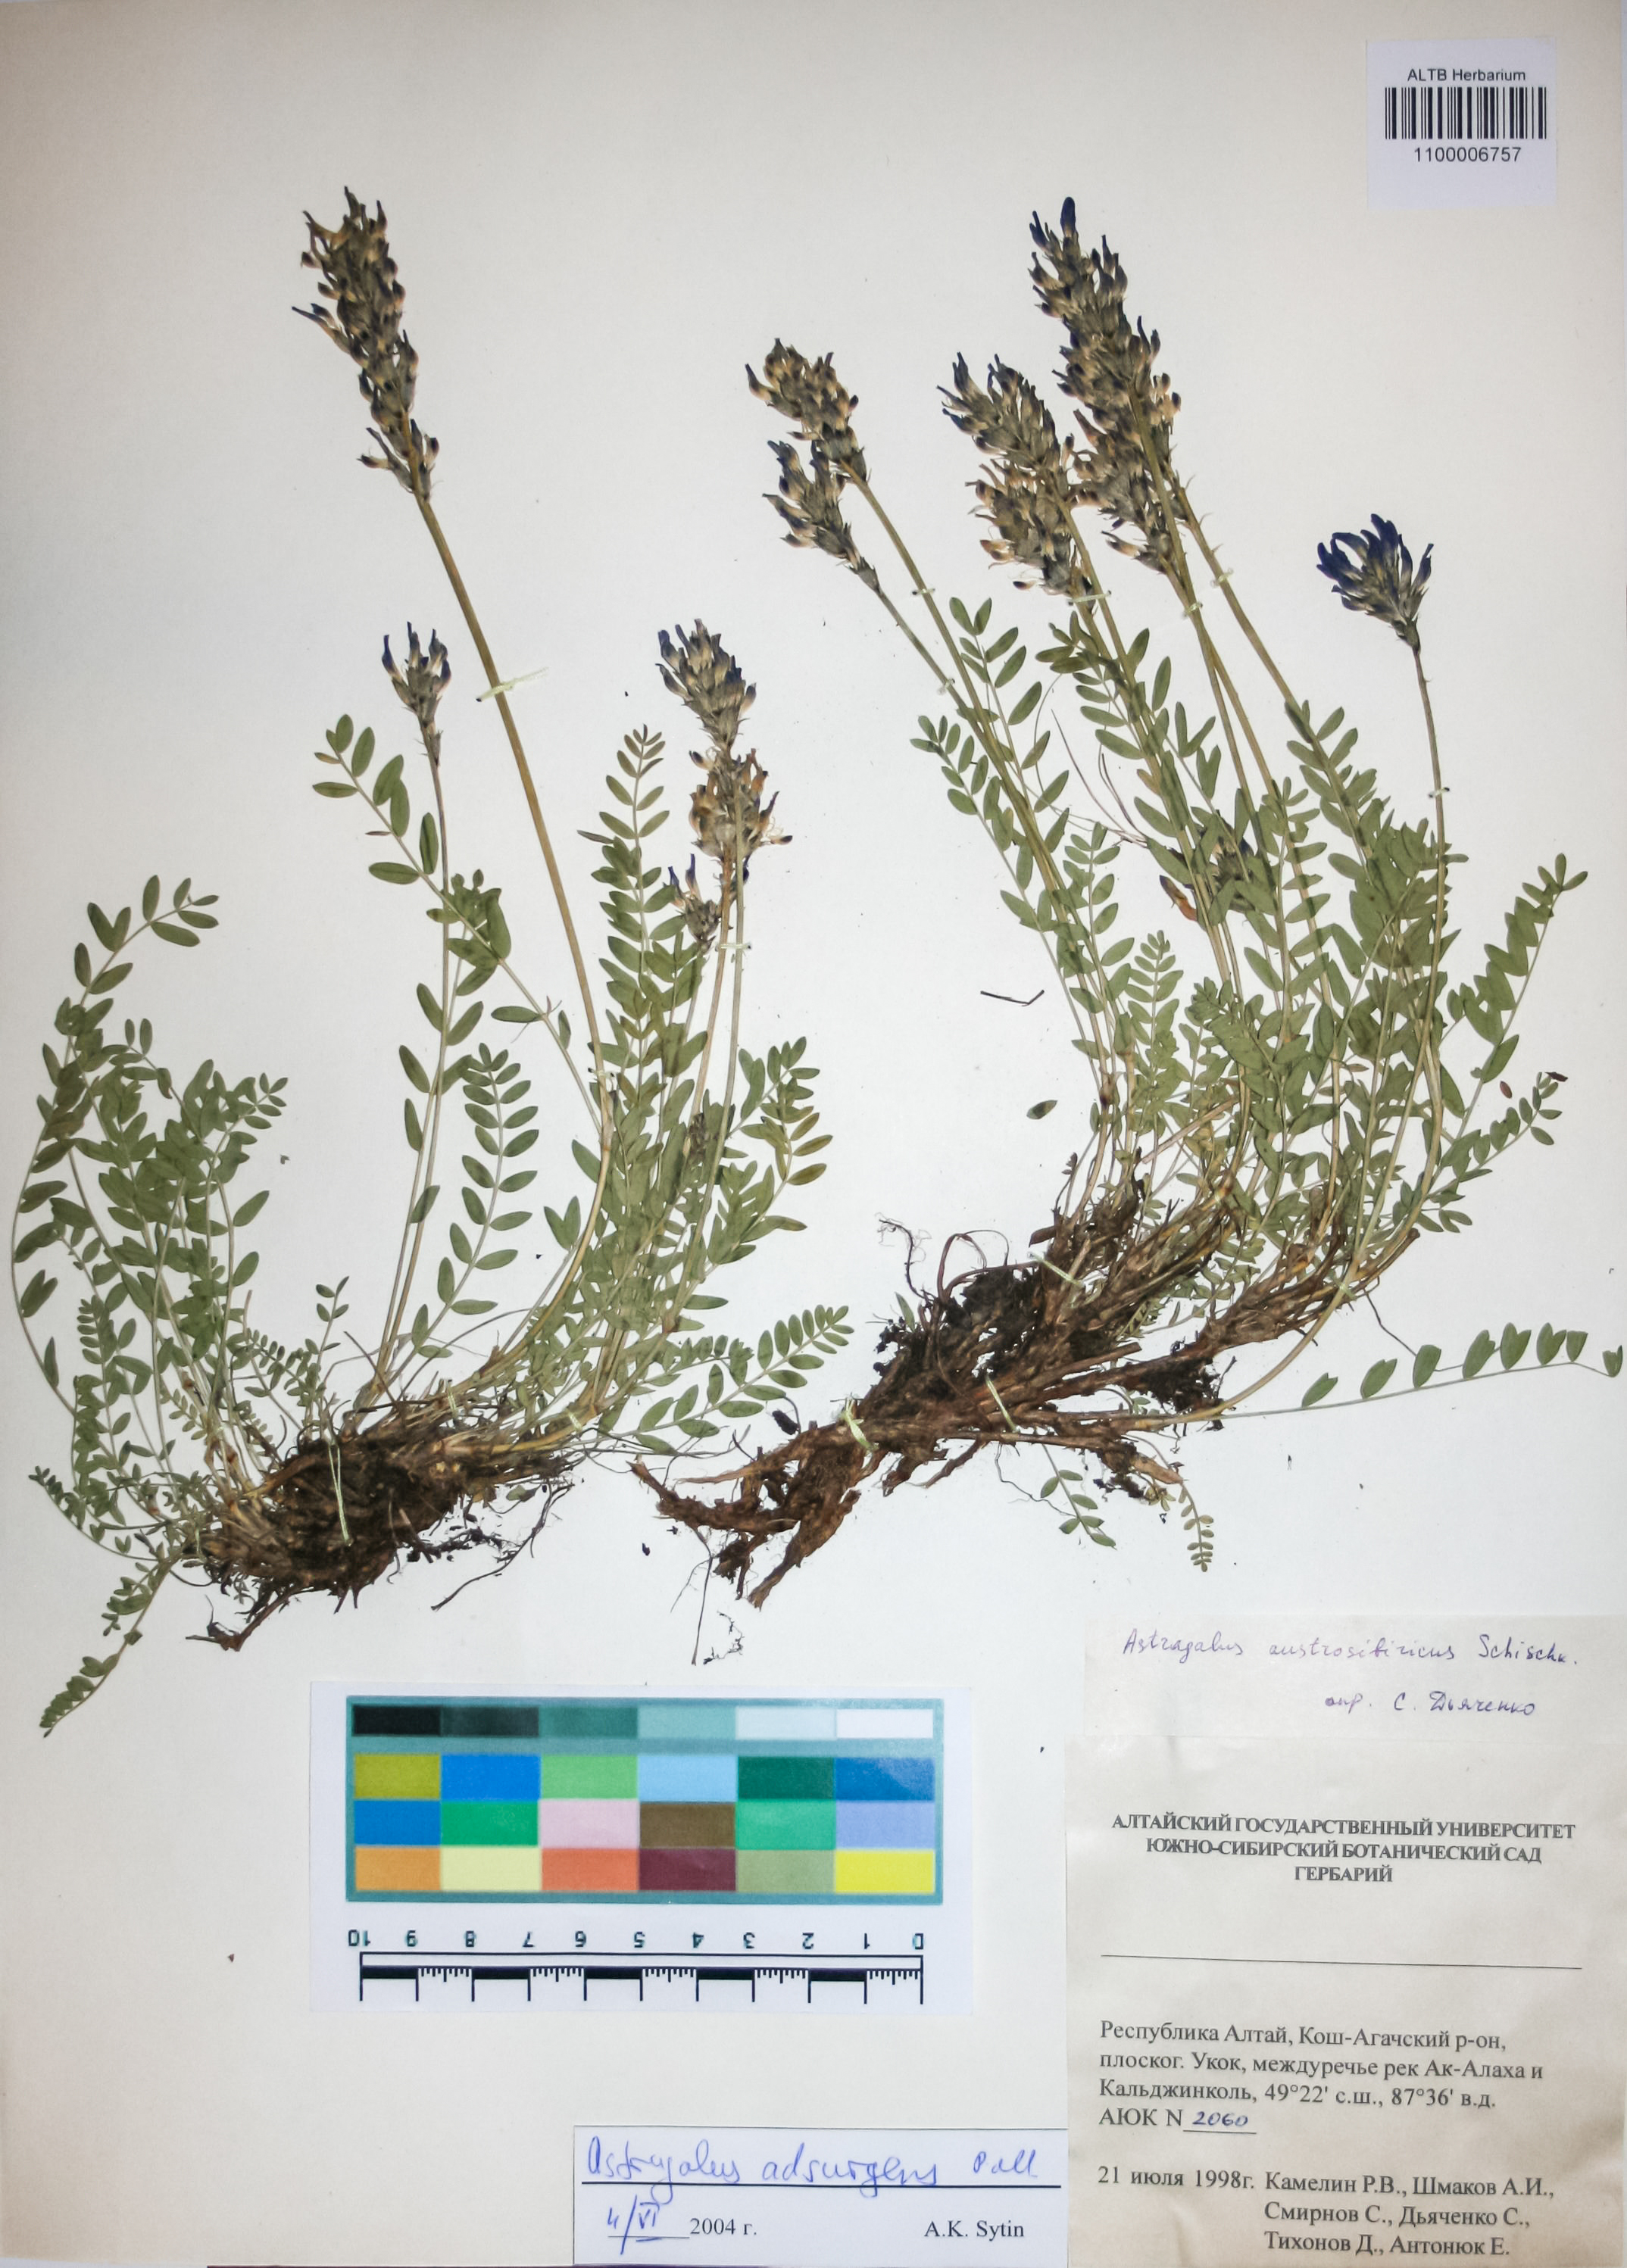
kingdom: Plantae
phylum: Tracheophyta
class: Magnoliopsida
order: Fabales
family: Fabaceae
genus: Astragalus
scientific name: Astragalus laxmannii
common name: Laxmann's milk-vetch
